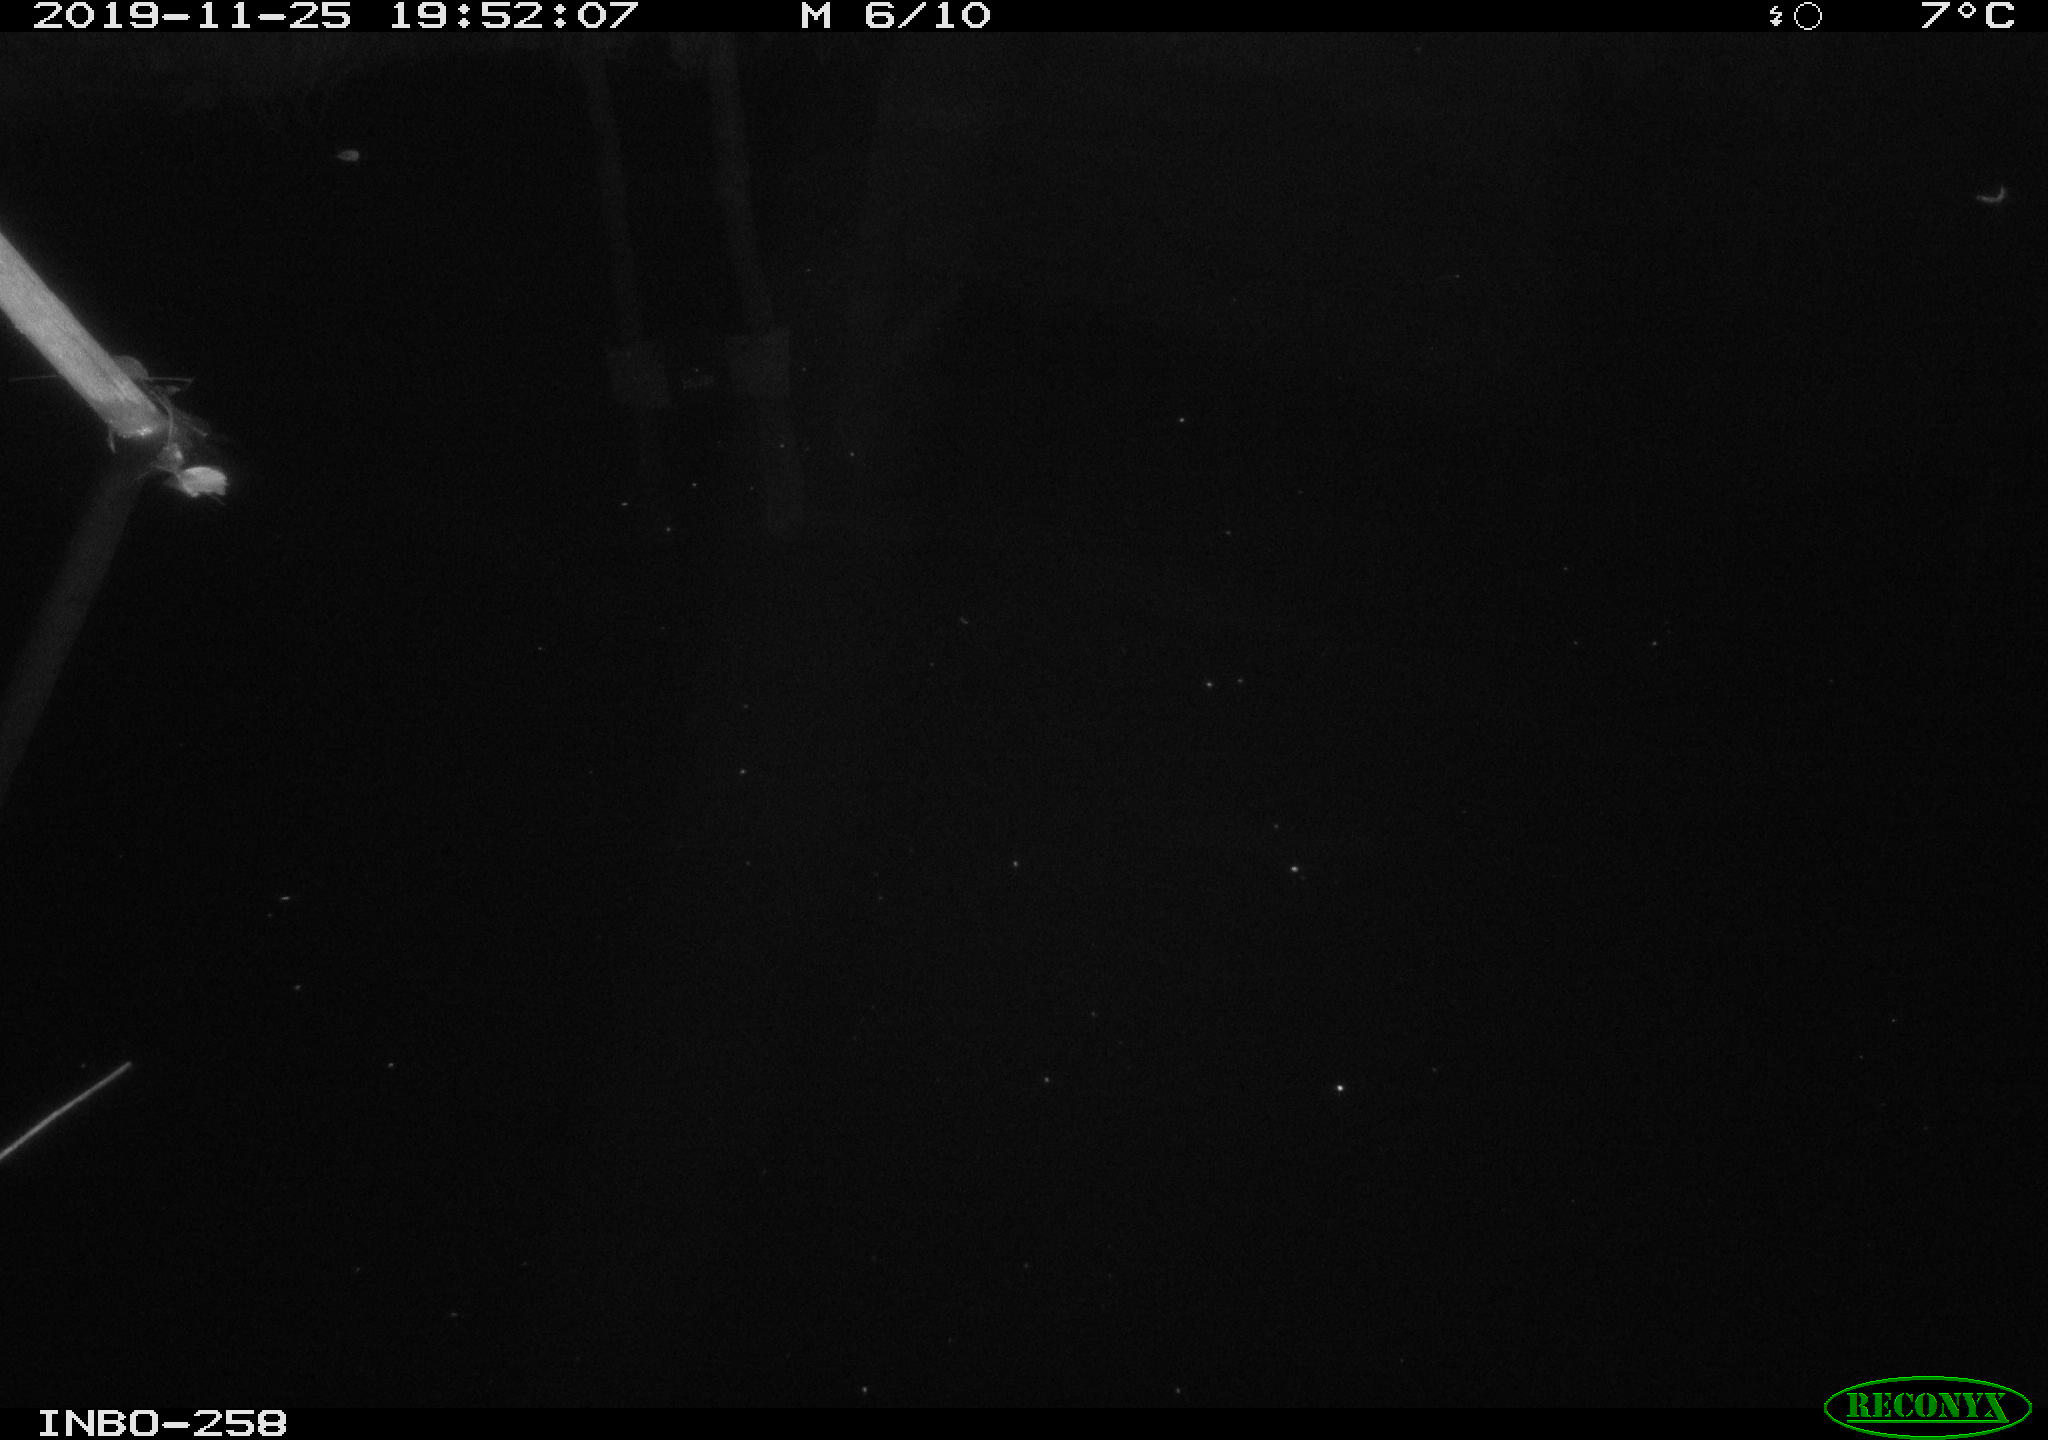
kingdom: Animalia
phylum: Chordata
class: Aves
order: Anseriformes
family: Anatidae
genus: Anas
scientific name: Anas platyrhynchos
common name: Mallard
